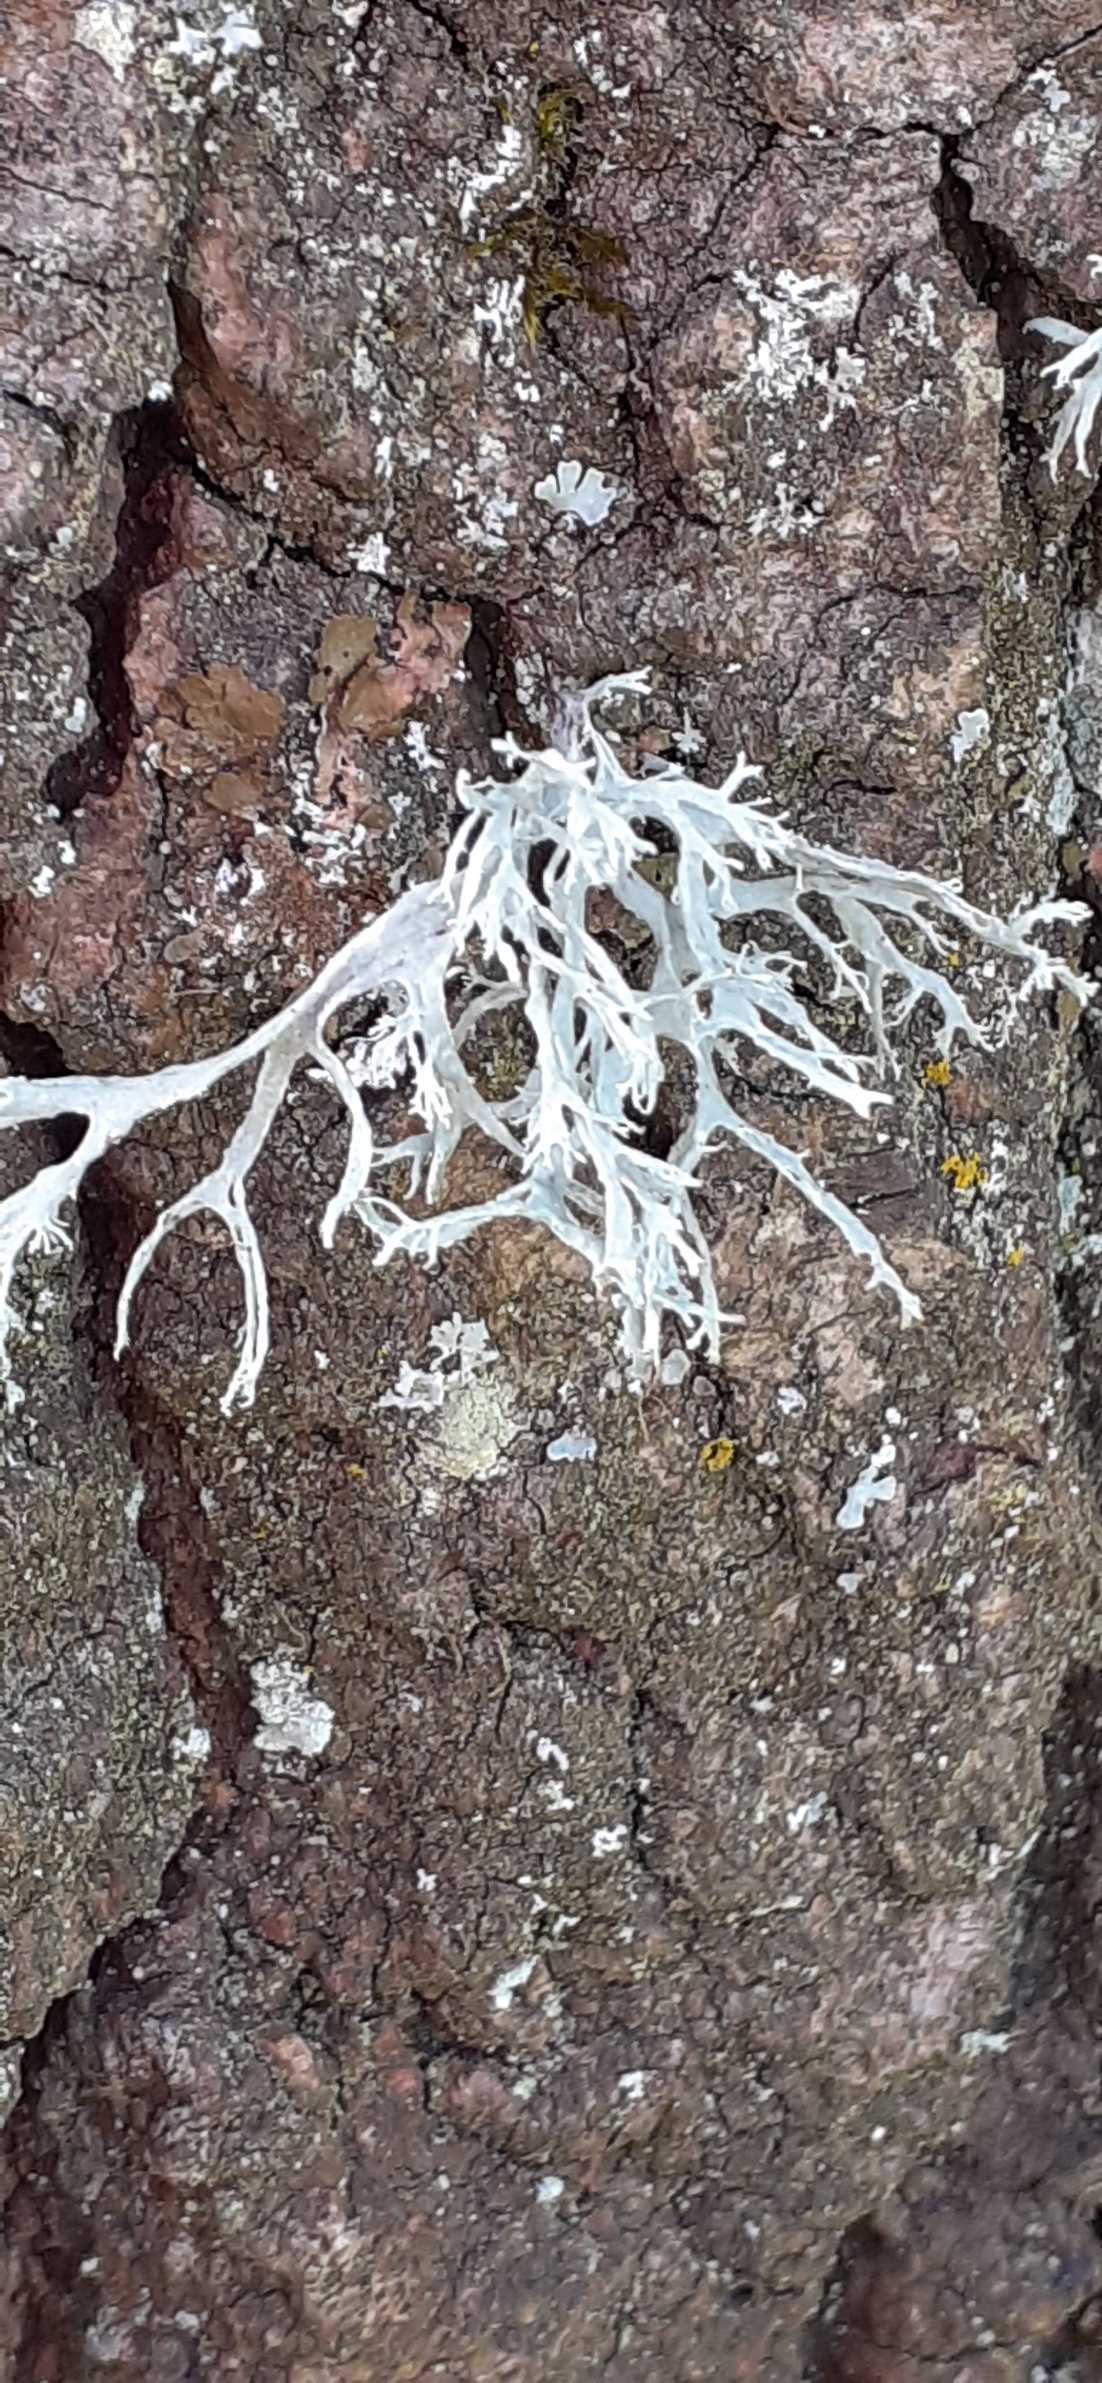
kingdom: Fungi
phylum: Ascomycota
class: Lecanoromycetes
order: Lecanorales
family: Parmeliaceae
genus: Evernia
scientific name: Evernia prunastri
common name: Almindelig slåenlav
